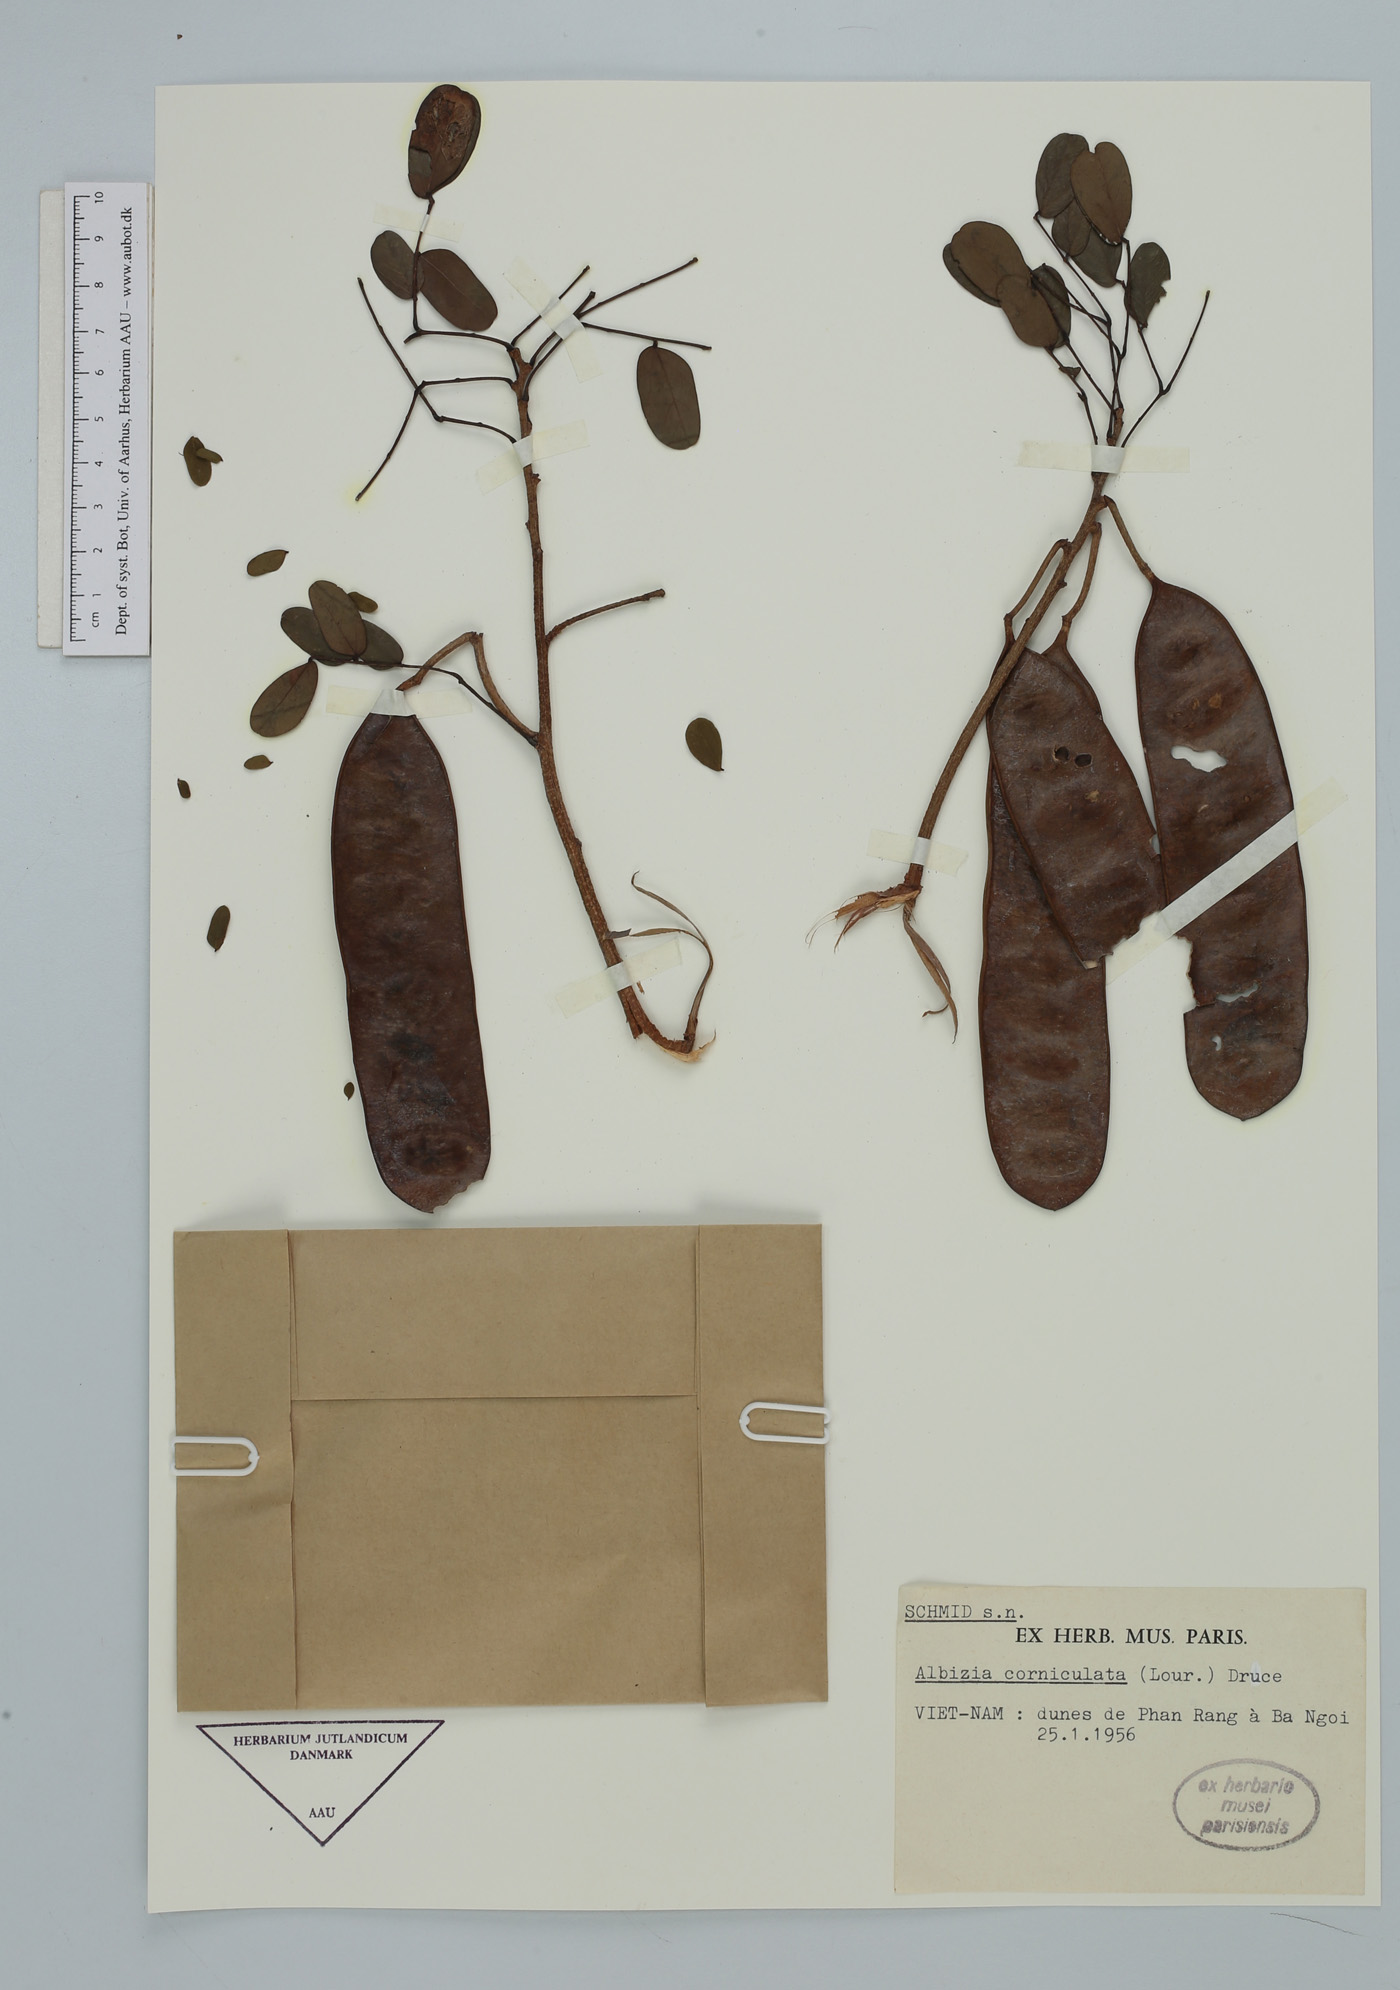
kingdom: Plantae
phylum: Tracheophyta
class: Magnoliopsida
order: Fabales
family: Fabaceae
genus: Albizia
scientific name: Albizia corniculata
